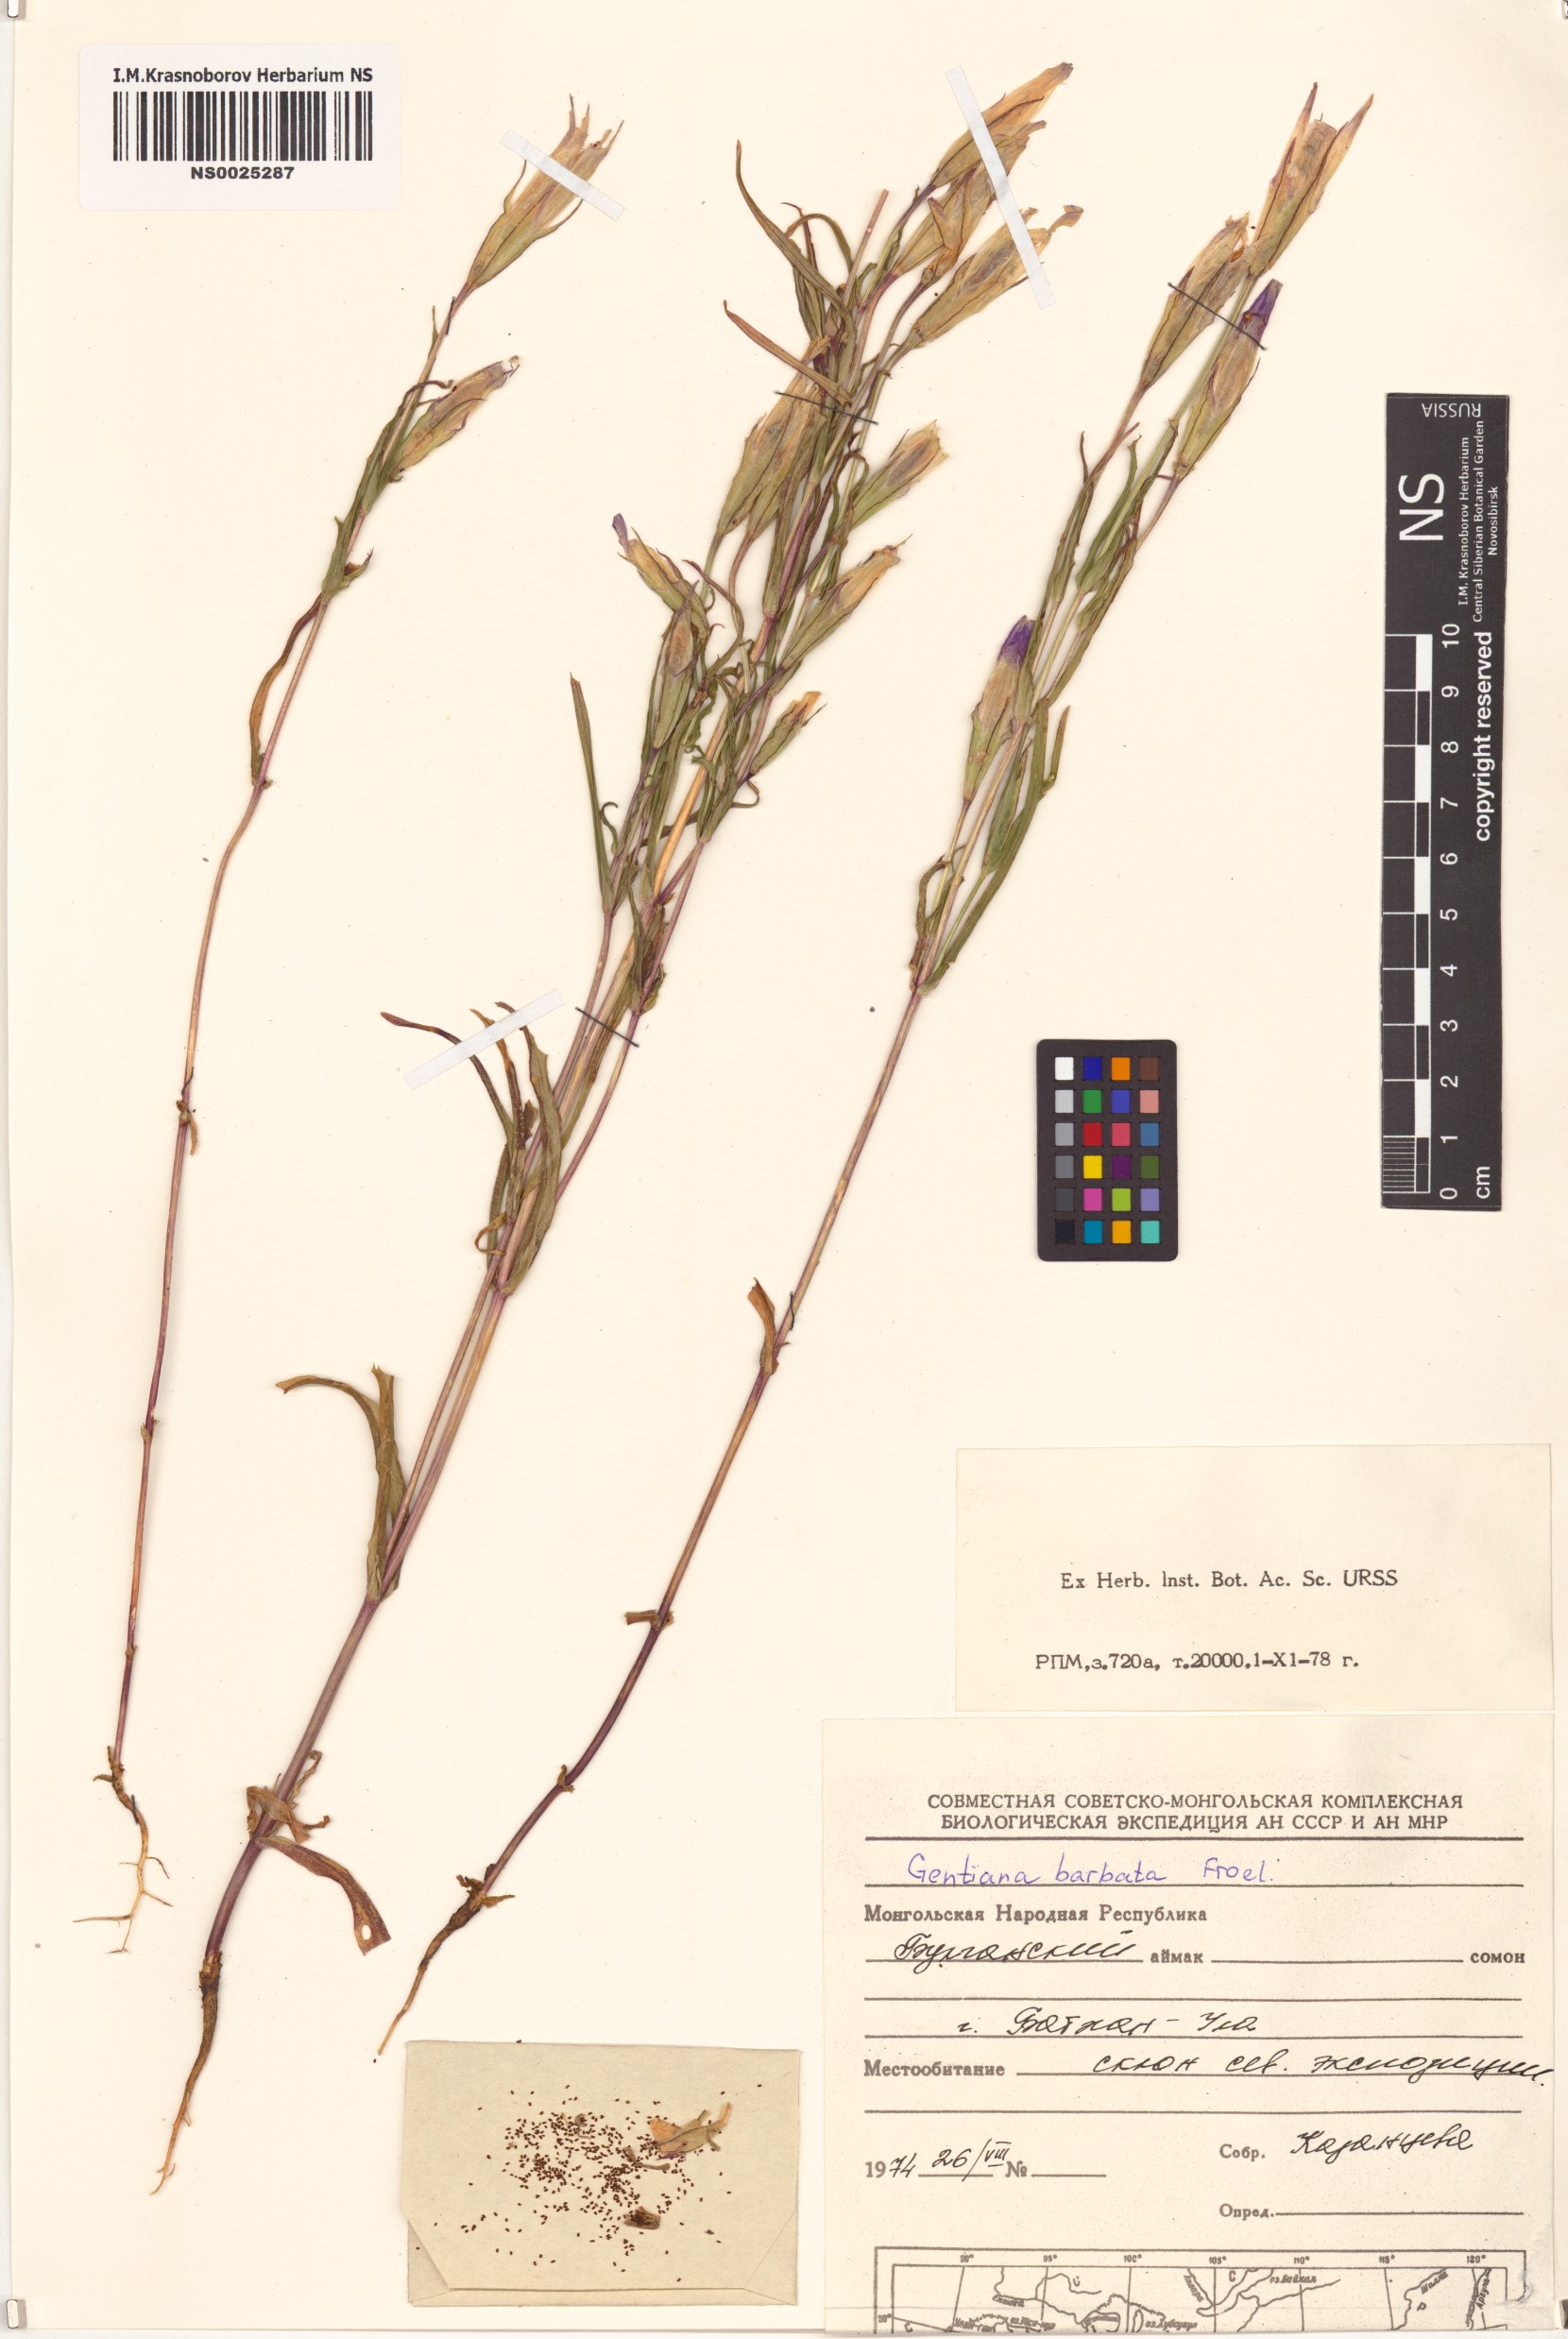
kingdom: Plantae
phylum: Tracheophyta
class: Magnoliopsida
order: Gentianales
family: Gentianaceae
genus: Gentianopsis
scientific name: Gentianopsis barbata
